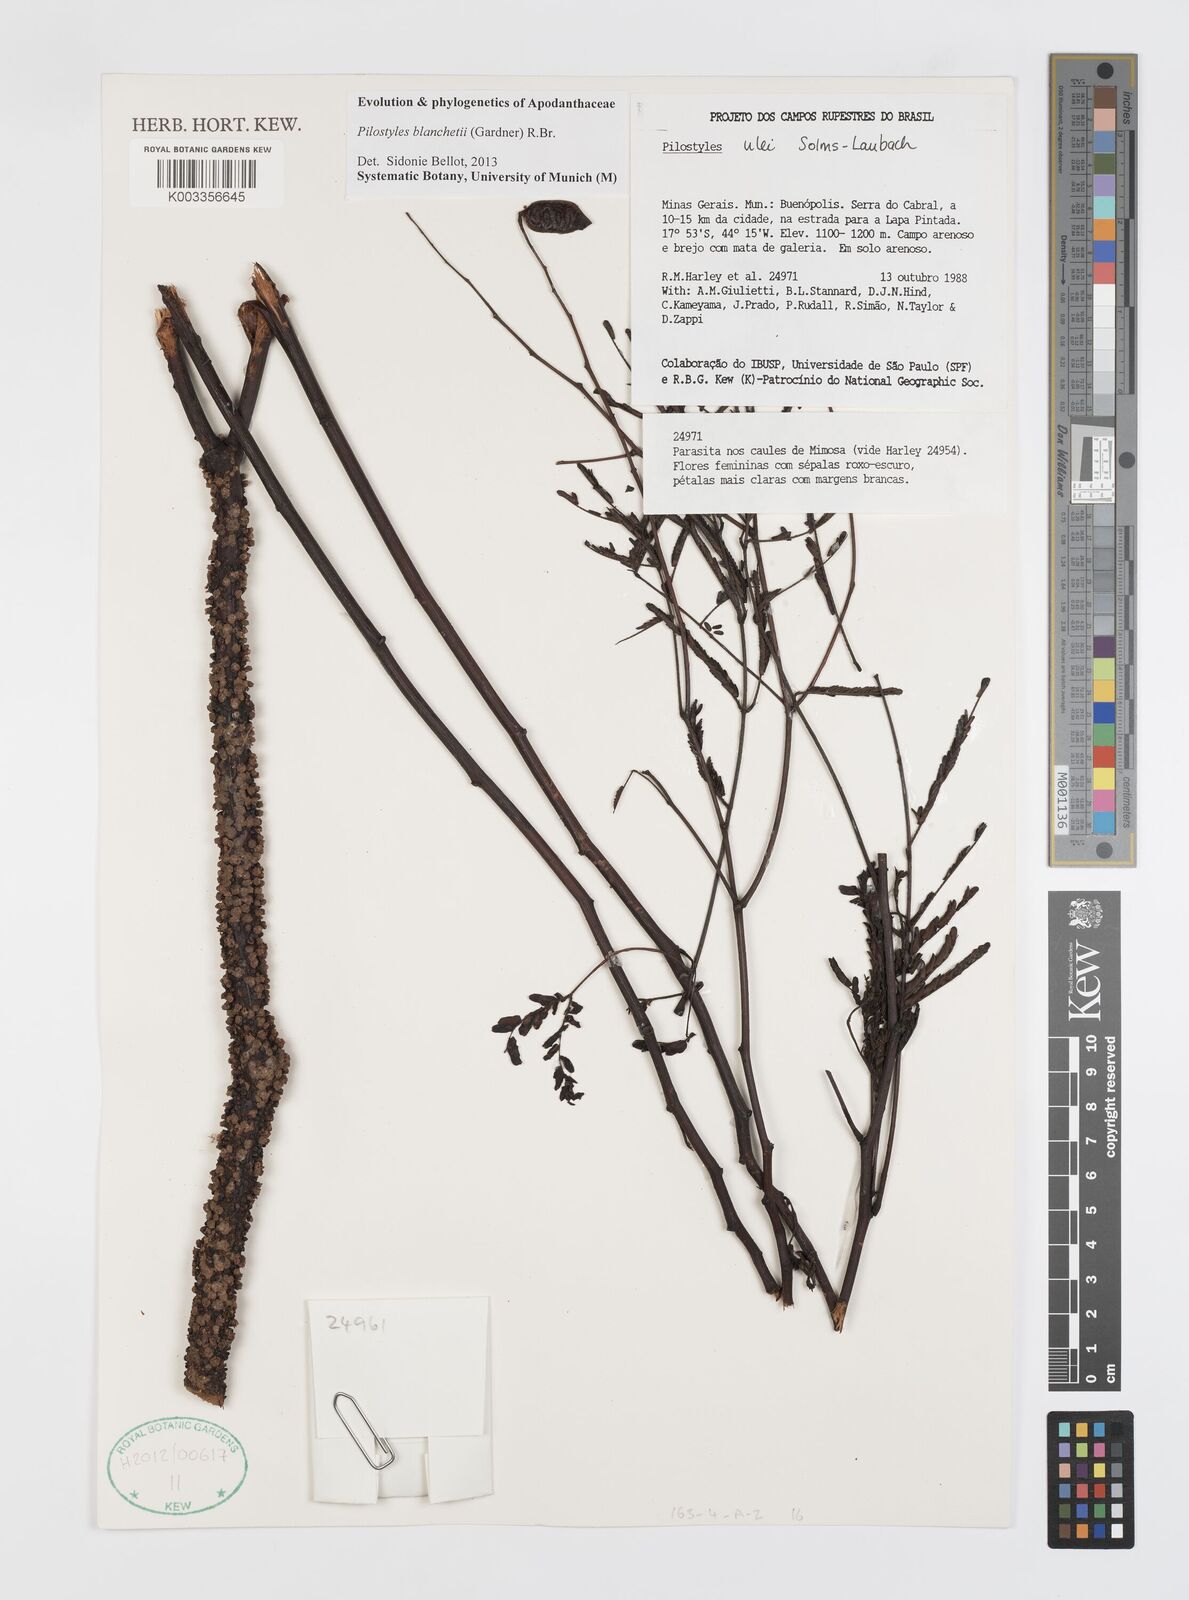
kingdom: Plantae
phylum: Tracheophyta
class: Magnoliopsida
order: Cucurbitales
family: Apodanthaceae
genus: Pilostyles
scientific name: Pilostyles blanchetii
